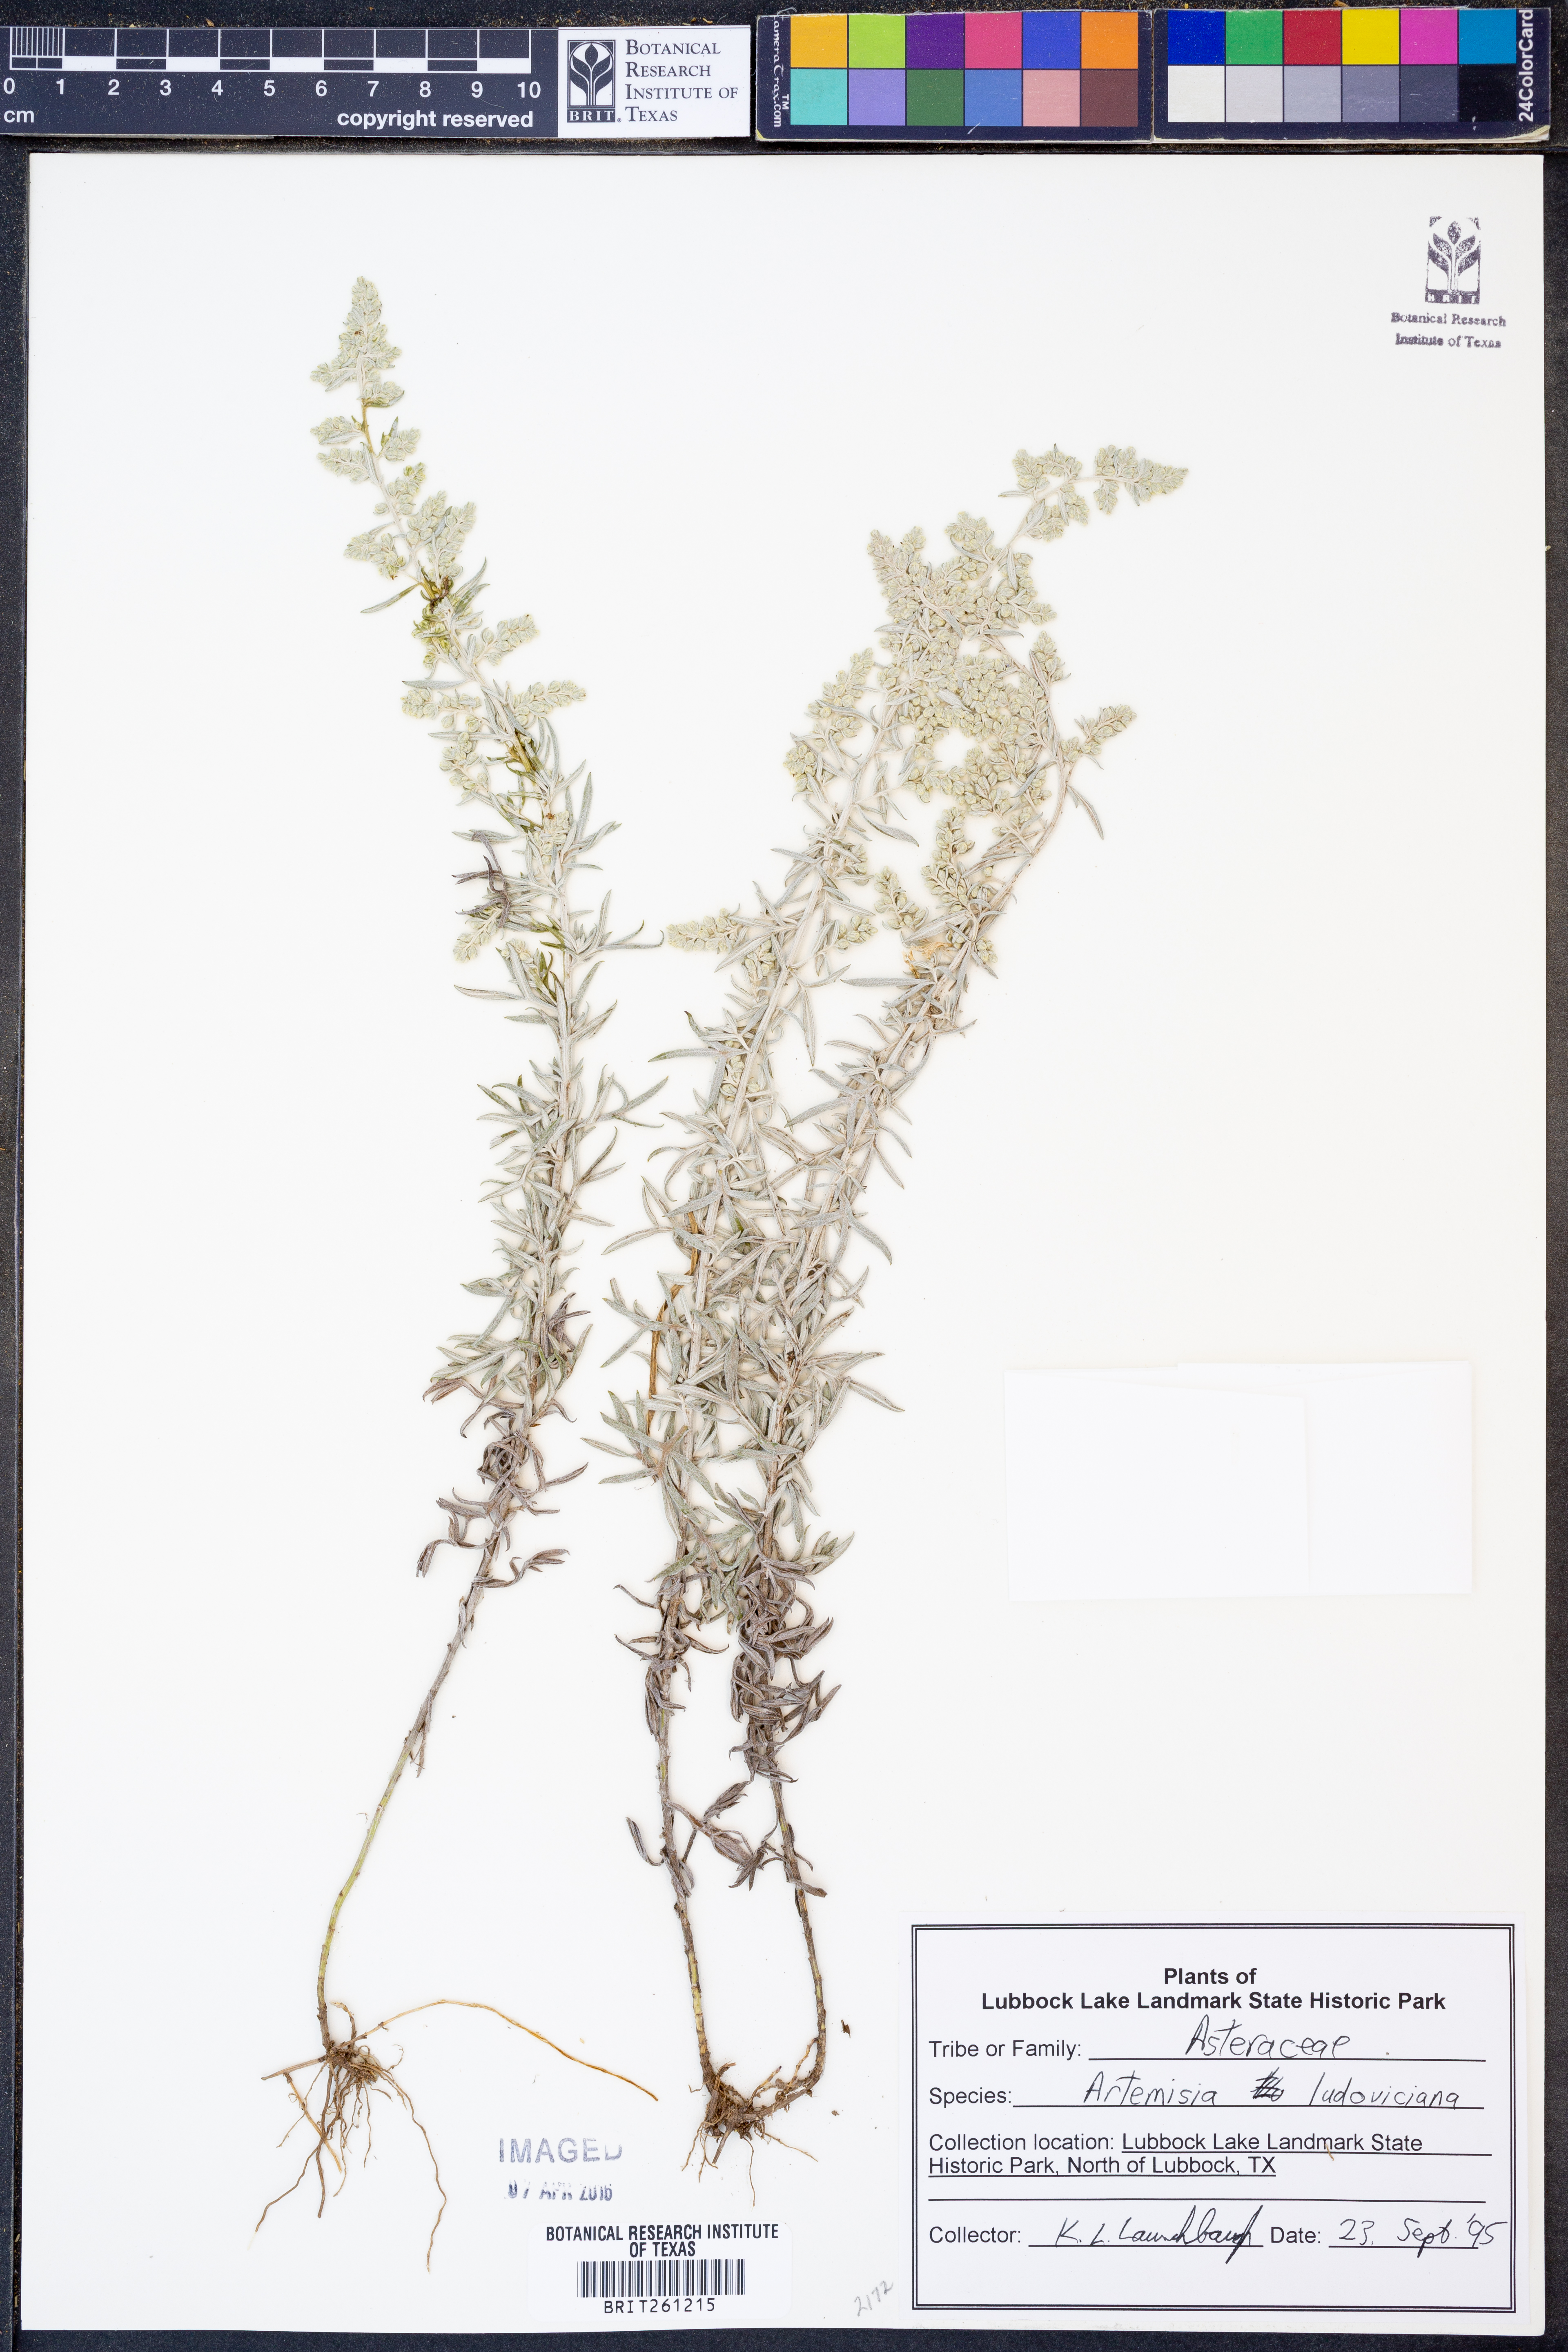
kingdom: Plantae
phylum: Tracheophyta
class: Magnoliopsida
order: Asterales
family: Asteraceae
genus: Artemisia
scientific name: Artemisia ludoviciana
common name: Western mugwort
